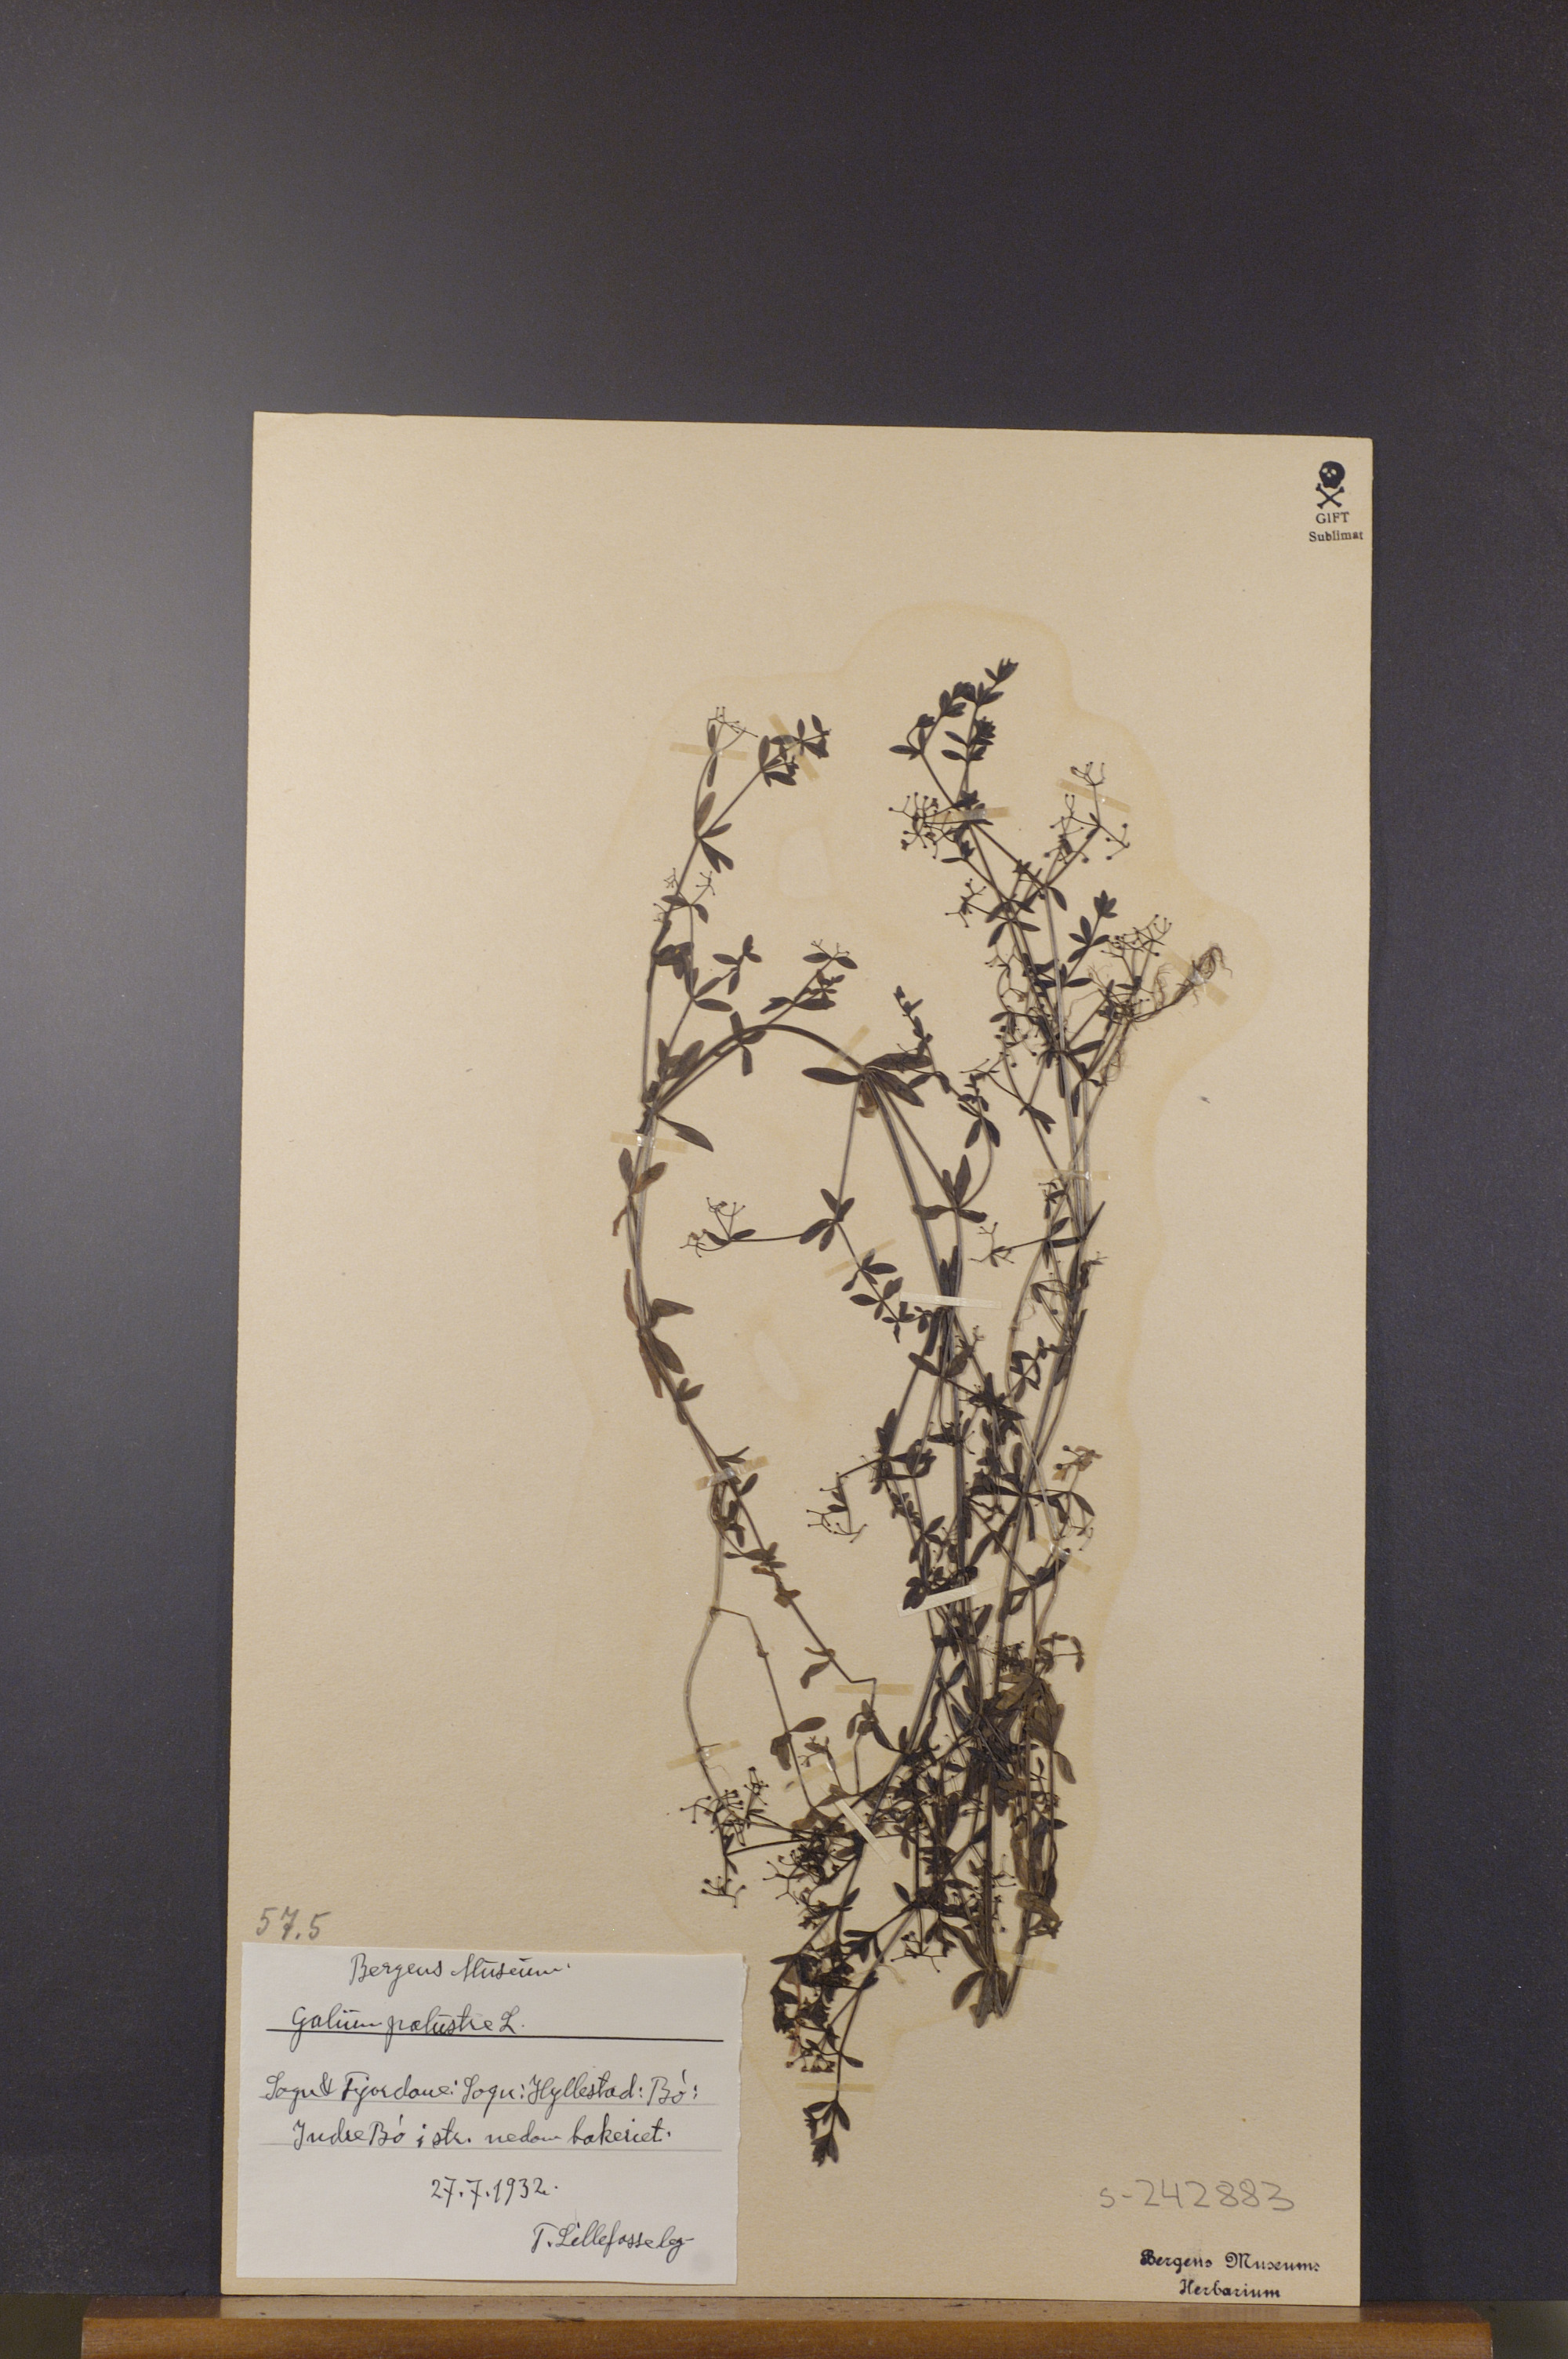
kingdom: Plantae
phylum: Tracheophyta
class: Magnoliopsida
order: Gentianales
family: Rubiaceae
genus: Galium
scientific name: Galium palustre
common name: Common marsh-bedstraw
